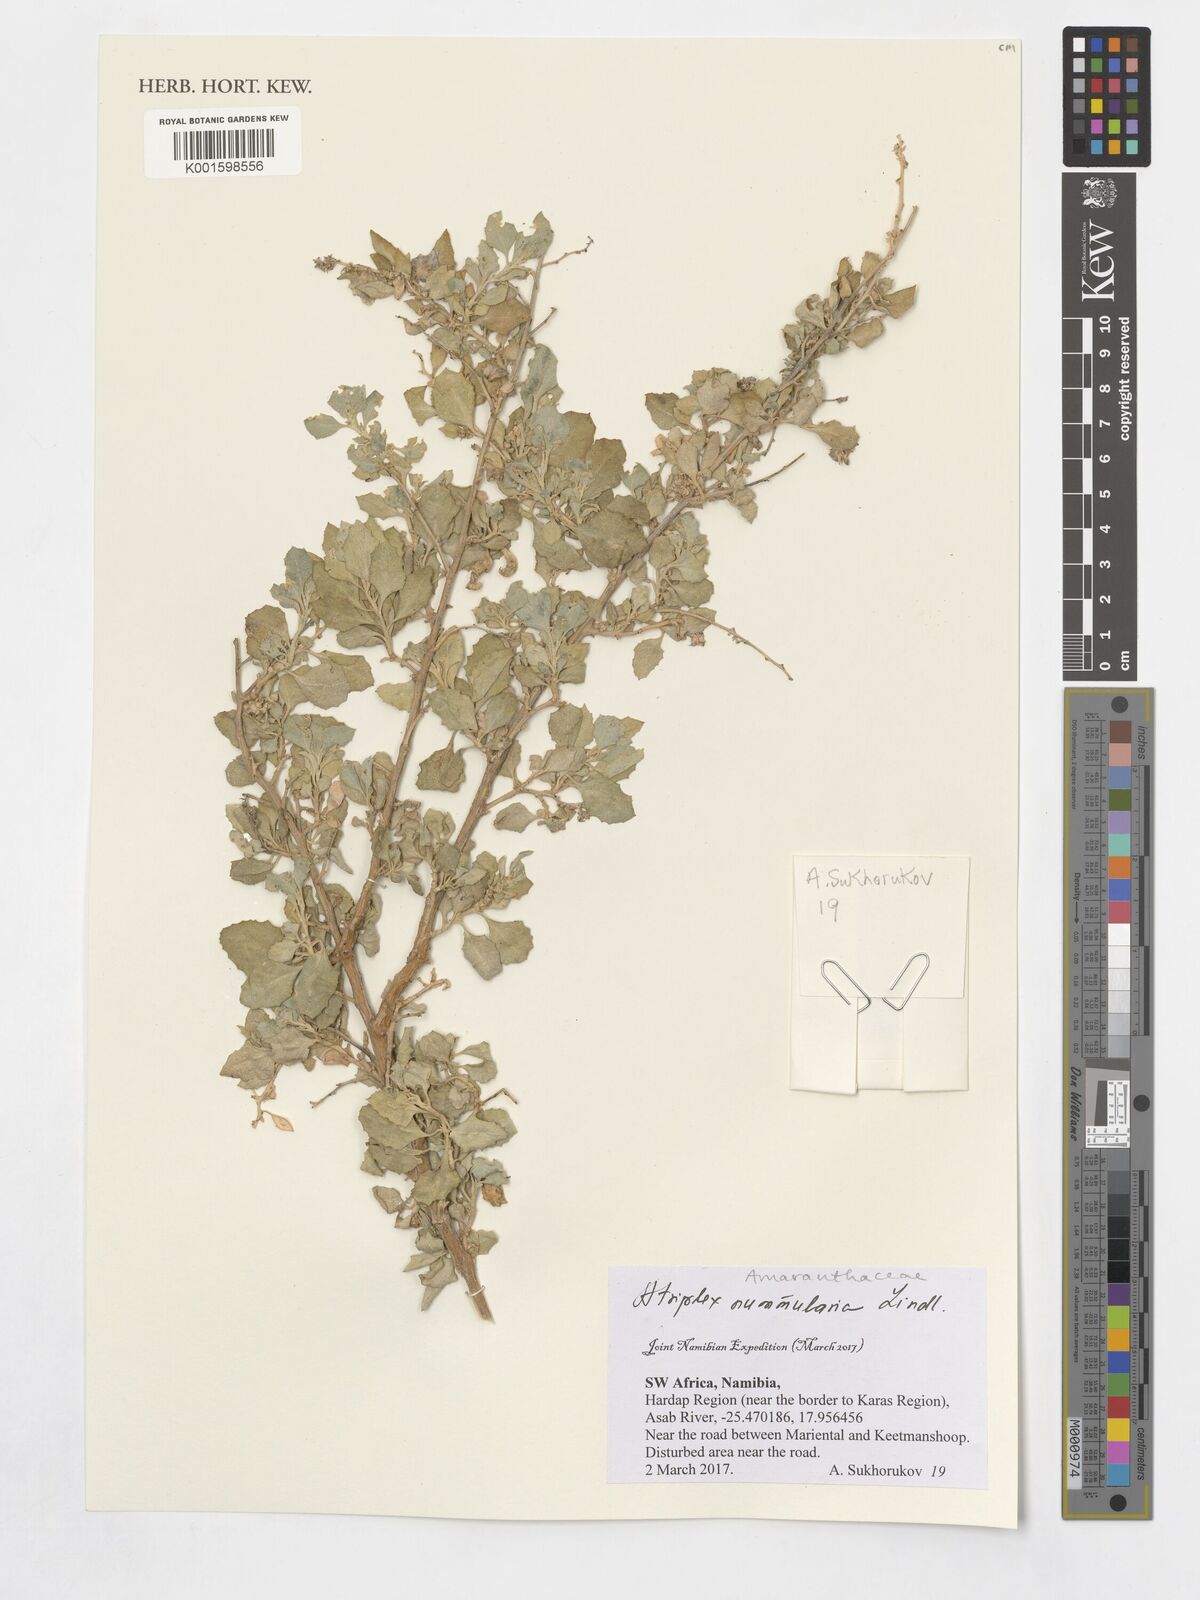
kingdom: Plantae
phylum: Tracheophyta
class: Magnoliopsida
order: Caryophyllales
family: Amaranthaceae
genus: Atriplex
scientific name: Atriplex nummularia
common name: Bluegreen saltbush
